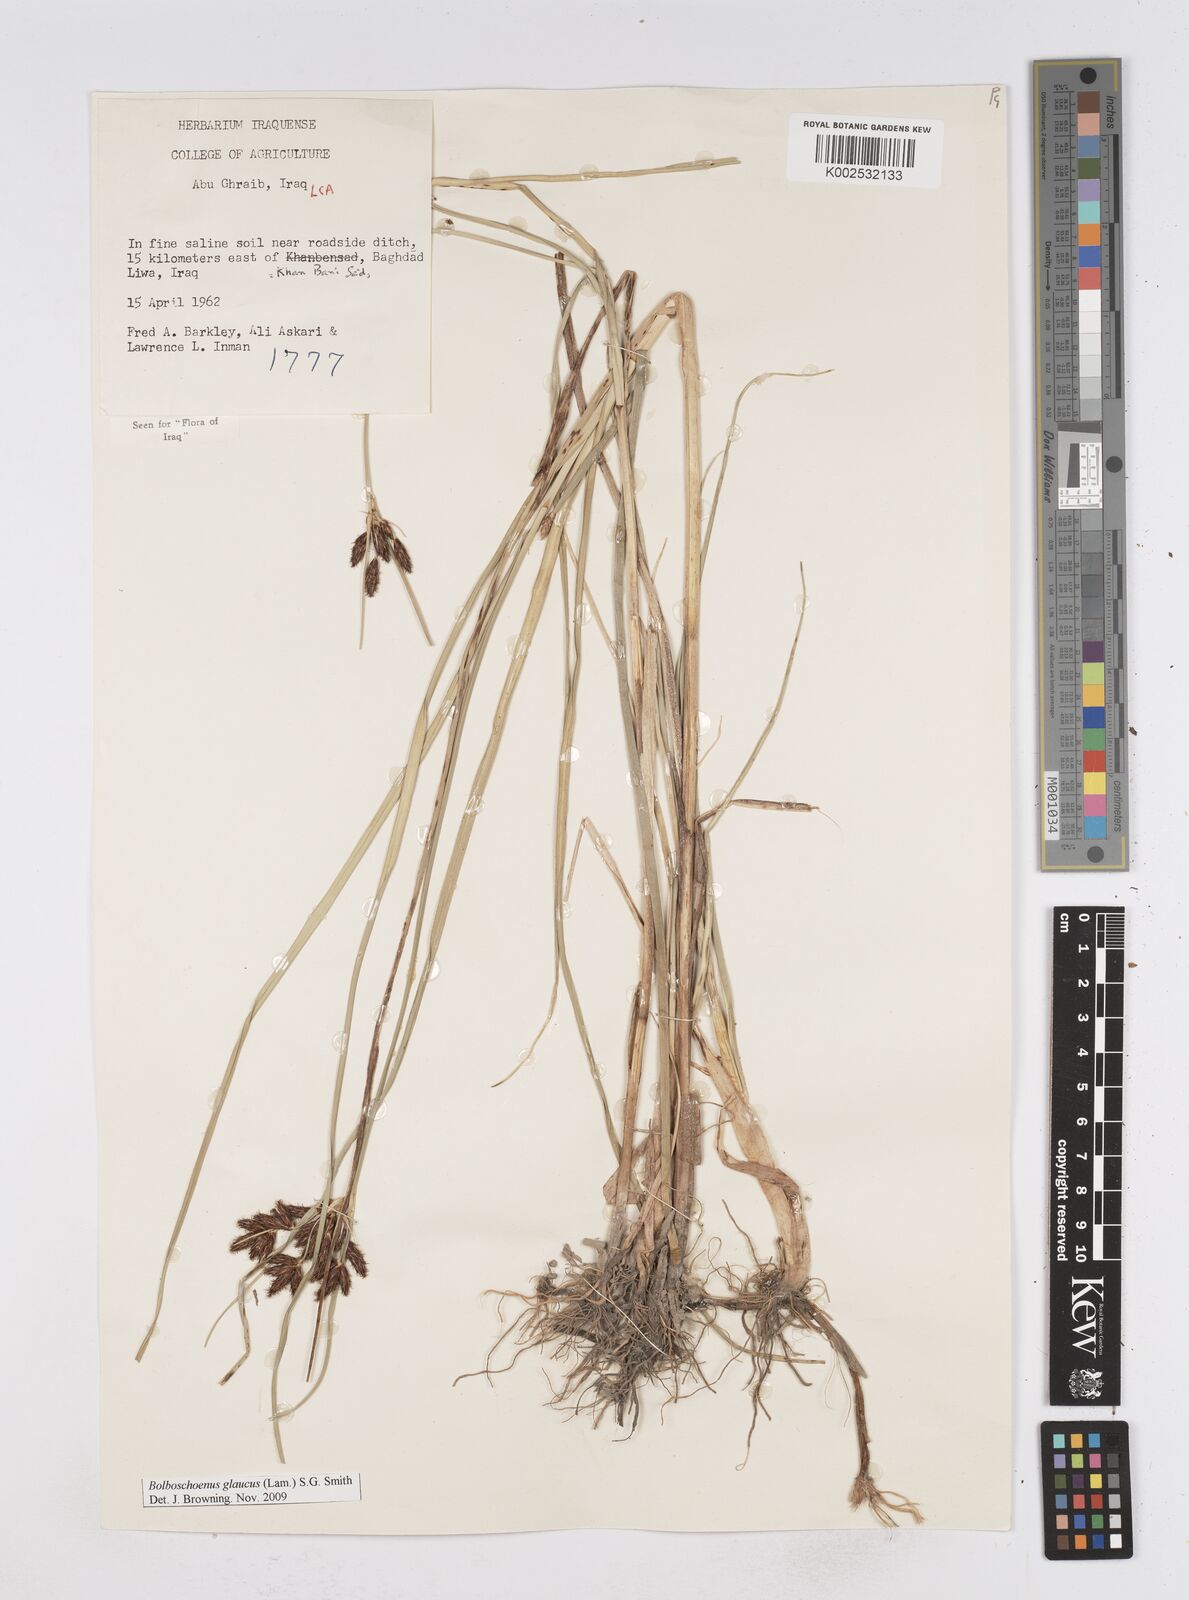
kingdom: Plantae
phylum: Tracheophyta
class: Liliopsida
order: Poales
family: Cyperaceae
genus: Bolboschoenus
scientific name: Bolboschoenus maritimus
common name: Sea club-rush
